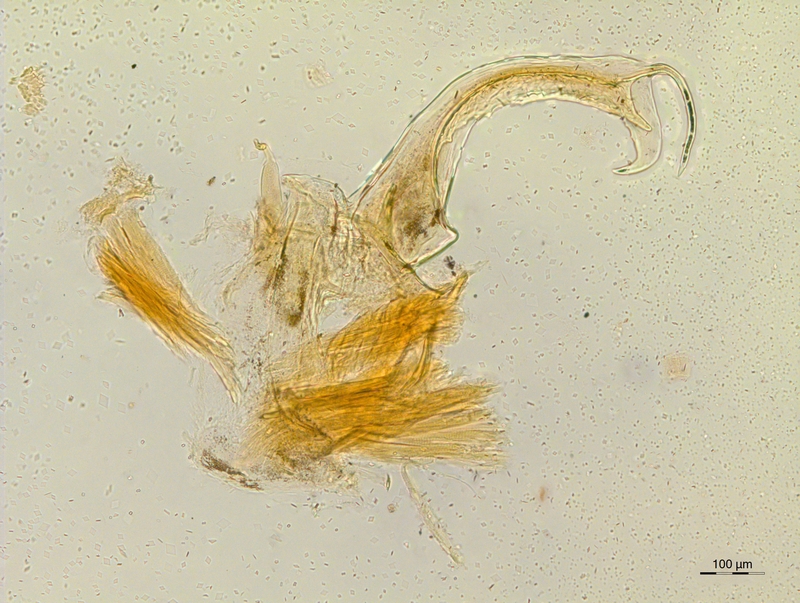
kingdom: Animalia
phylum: Arthropoda
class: Diplopoda
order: Chordeumatida
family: Craspedosomatidae
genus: Atractosoma
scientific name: Atractosoma marinense
